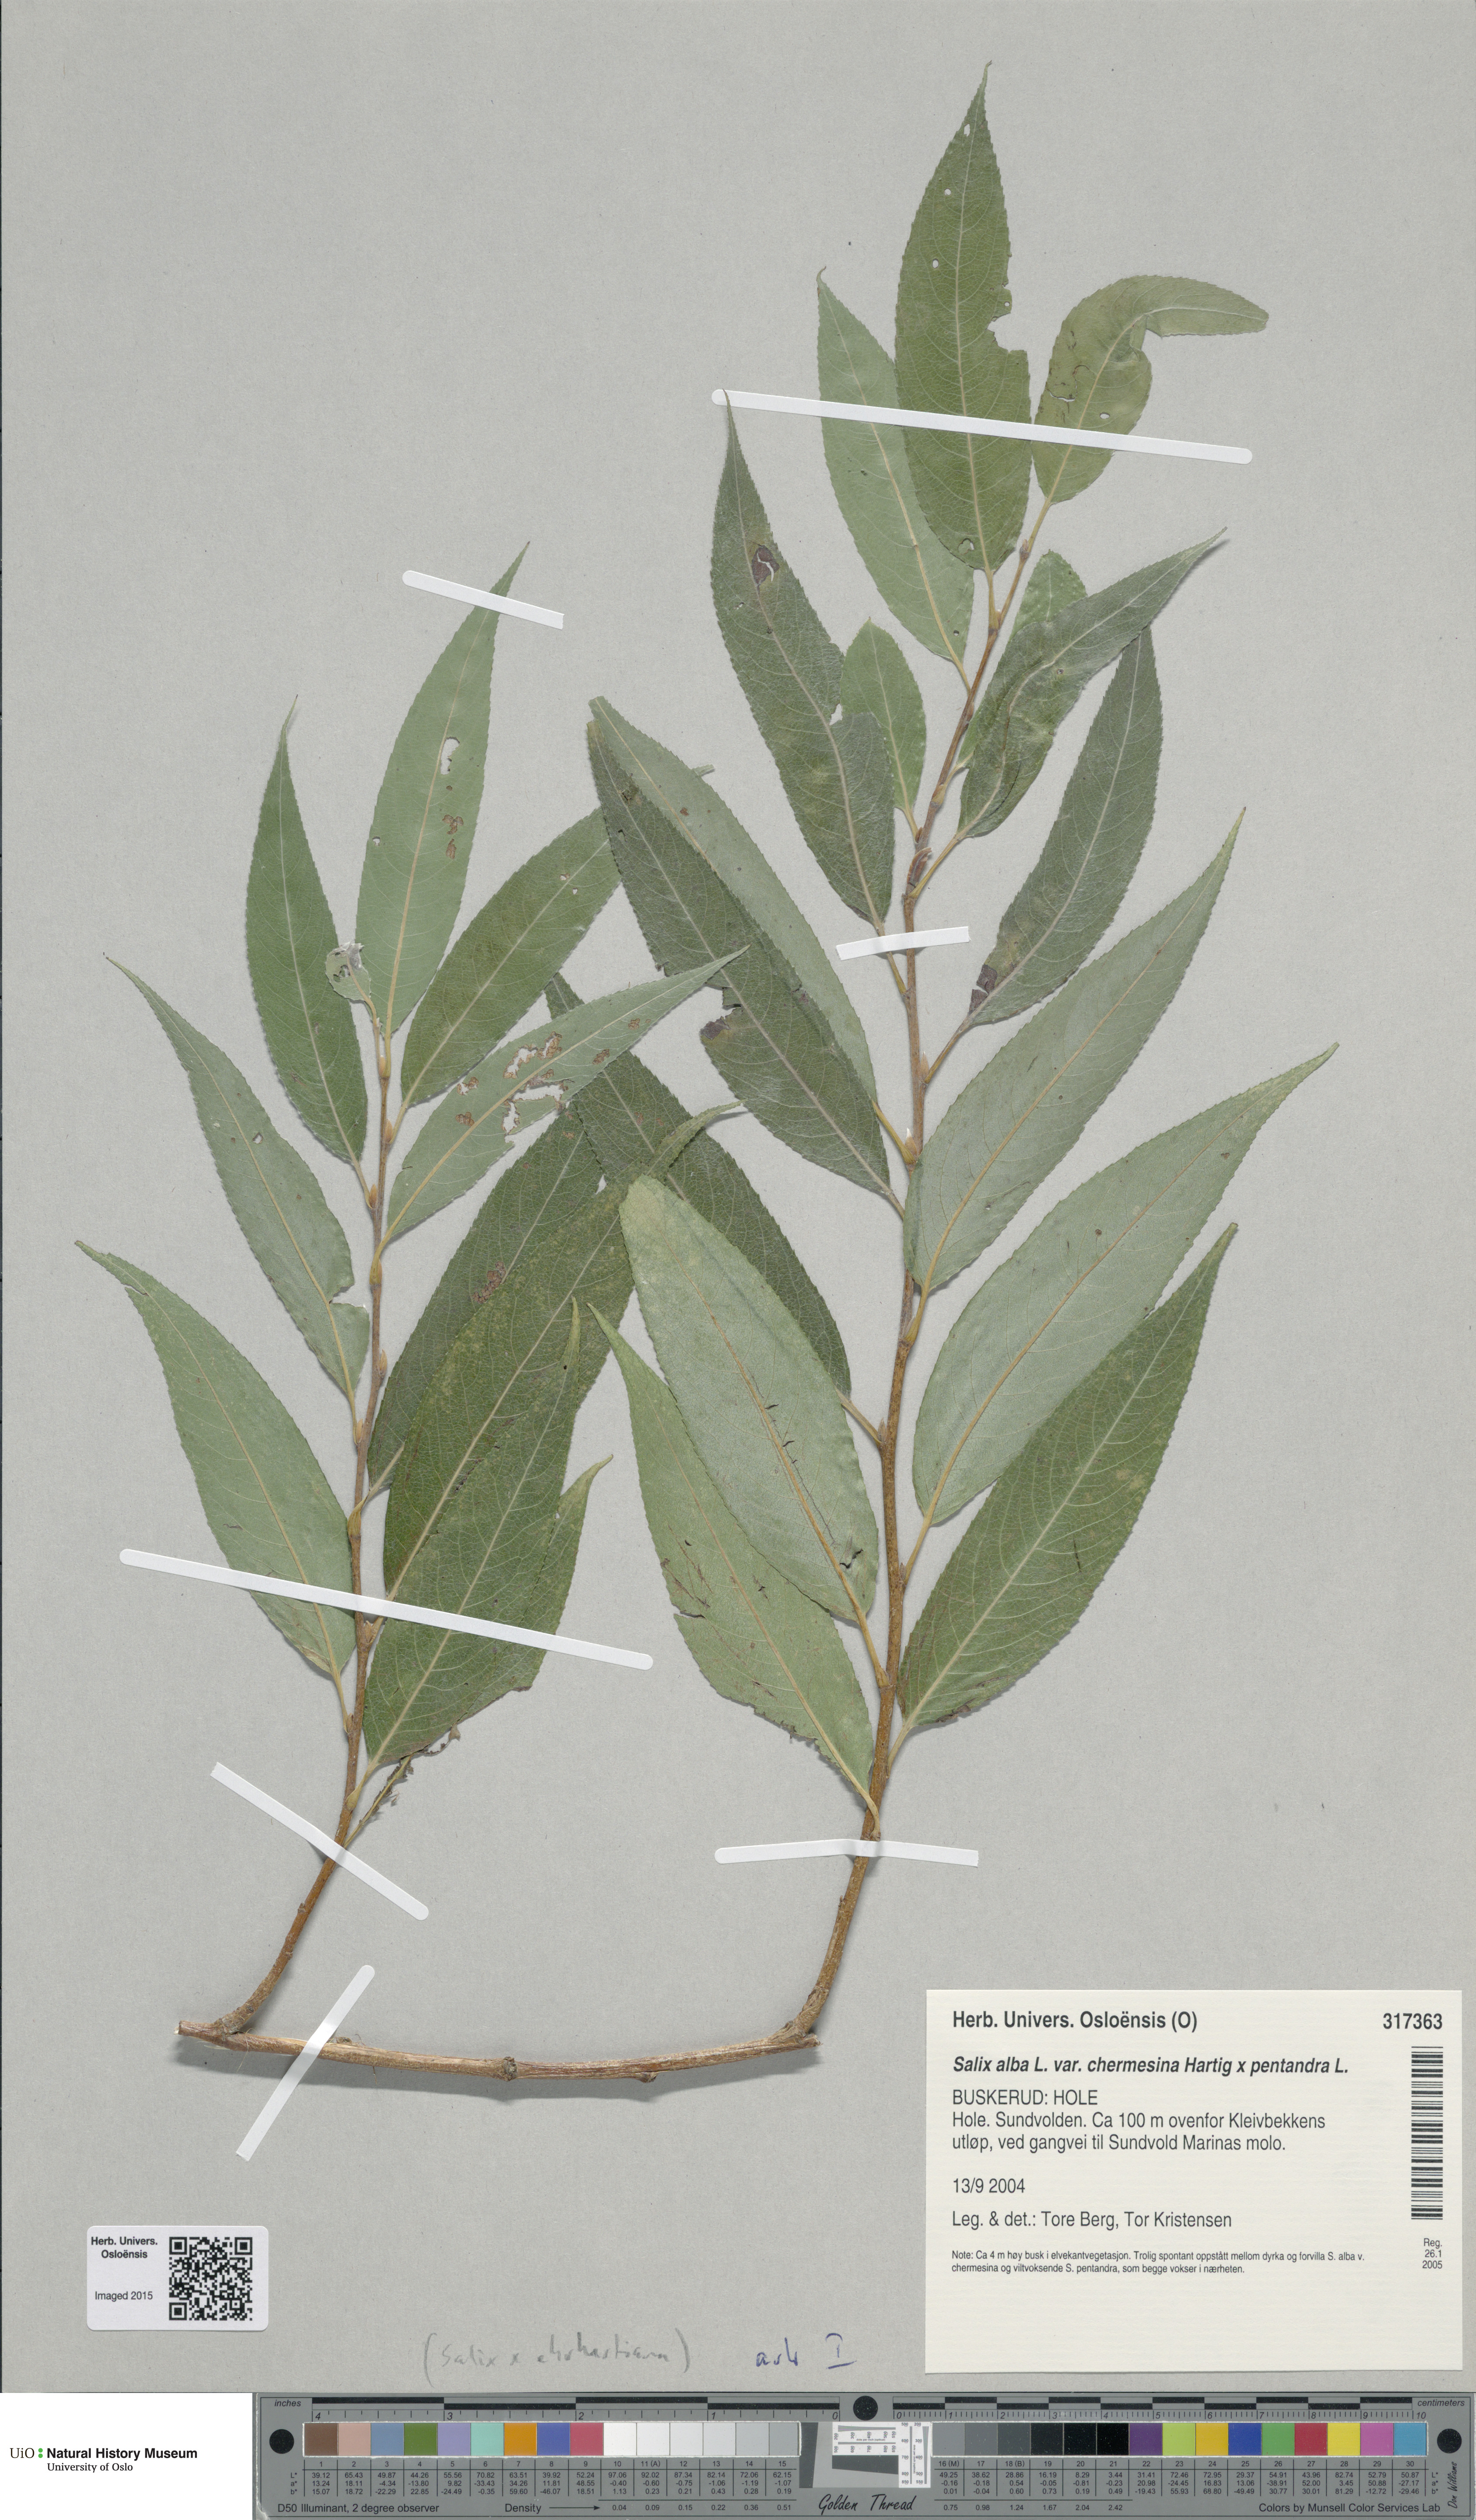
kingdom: Plantae
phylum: Tracheophyta
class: Magnoliopsida
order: Malpighiales
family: Salicaceae
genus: Salix
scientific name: Salix
